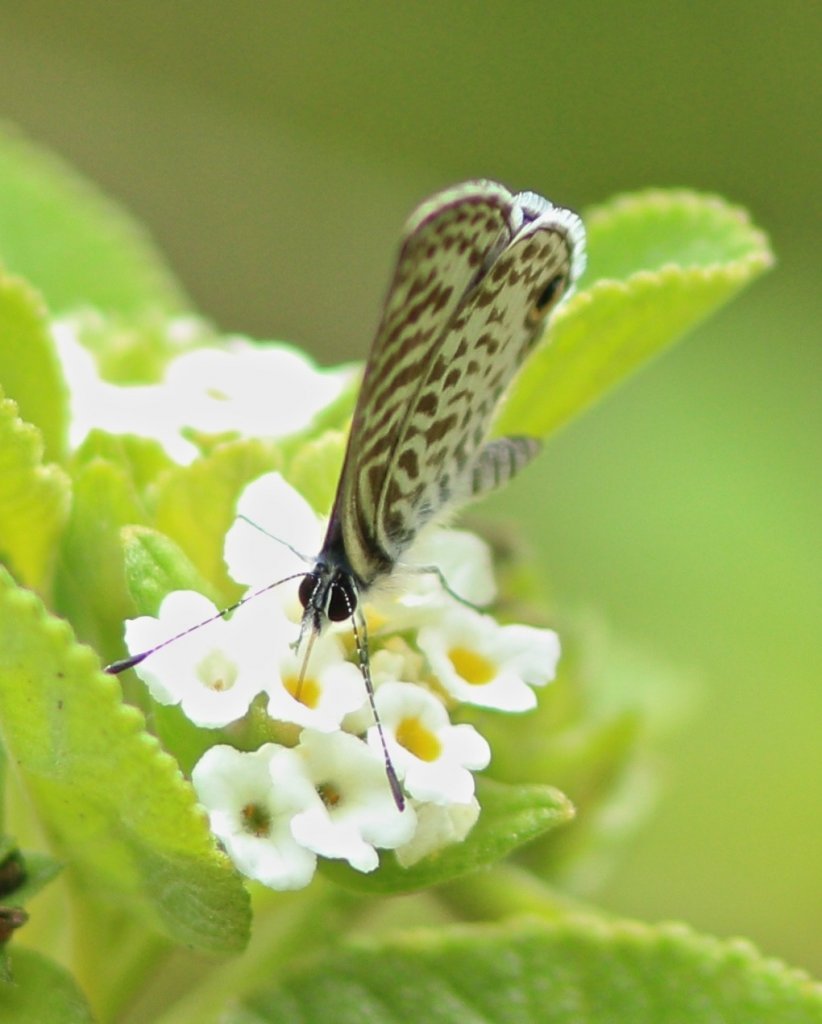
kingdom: Animalia
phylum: Arthropoda
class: Insecta
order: Lepidoptera
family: Lycaenidae
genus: Leptotes
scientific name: Leptotes cassius
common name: Cassius Blue
